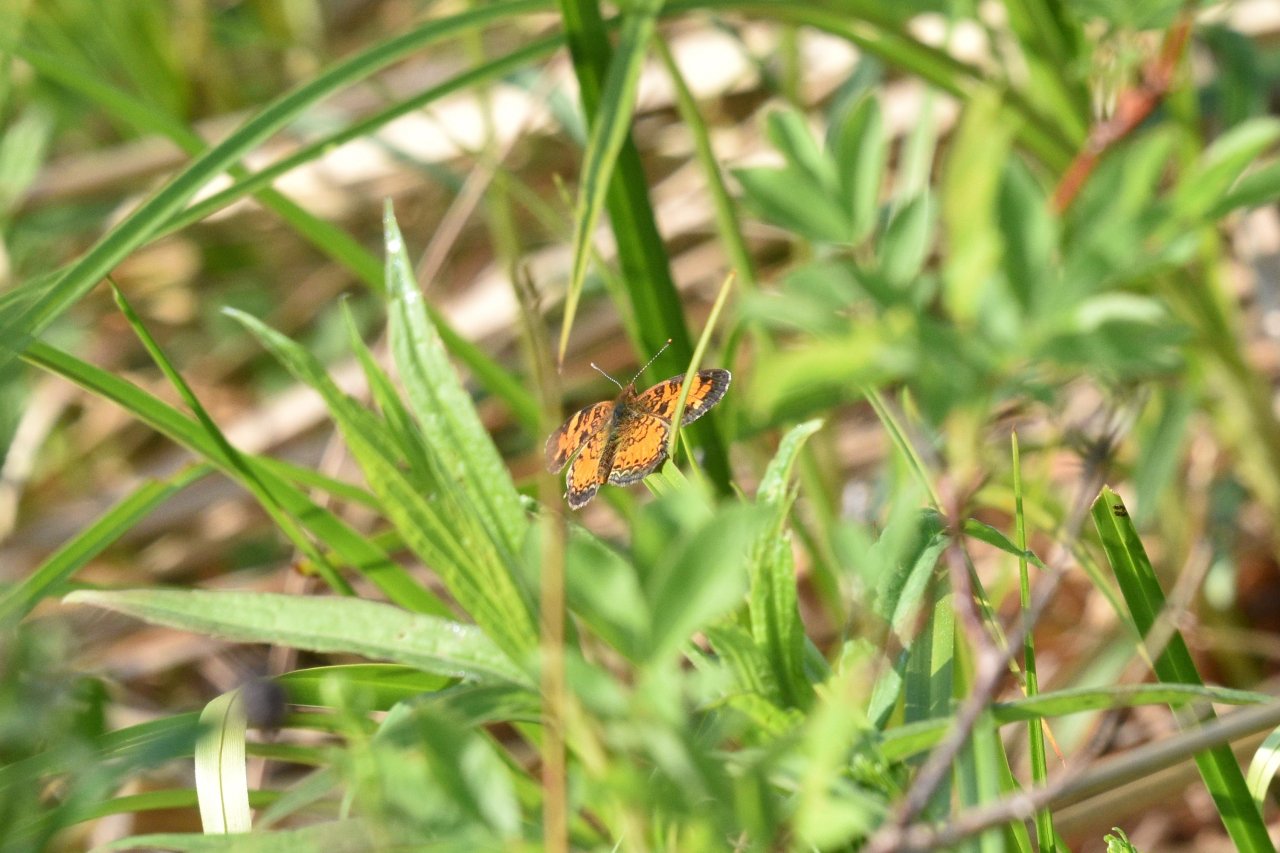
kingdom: Animalia
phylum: Arthropoda
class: Insecta
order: Lepidoptera
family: Nymphalidae
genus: Phyciodes
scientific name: Phyciodes tharos
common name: Northern Crescent
